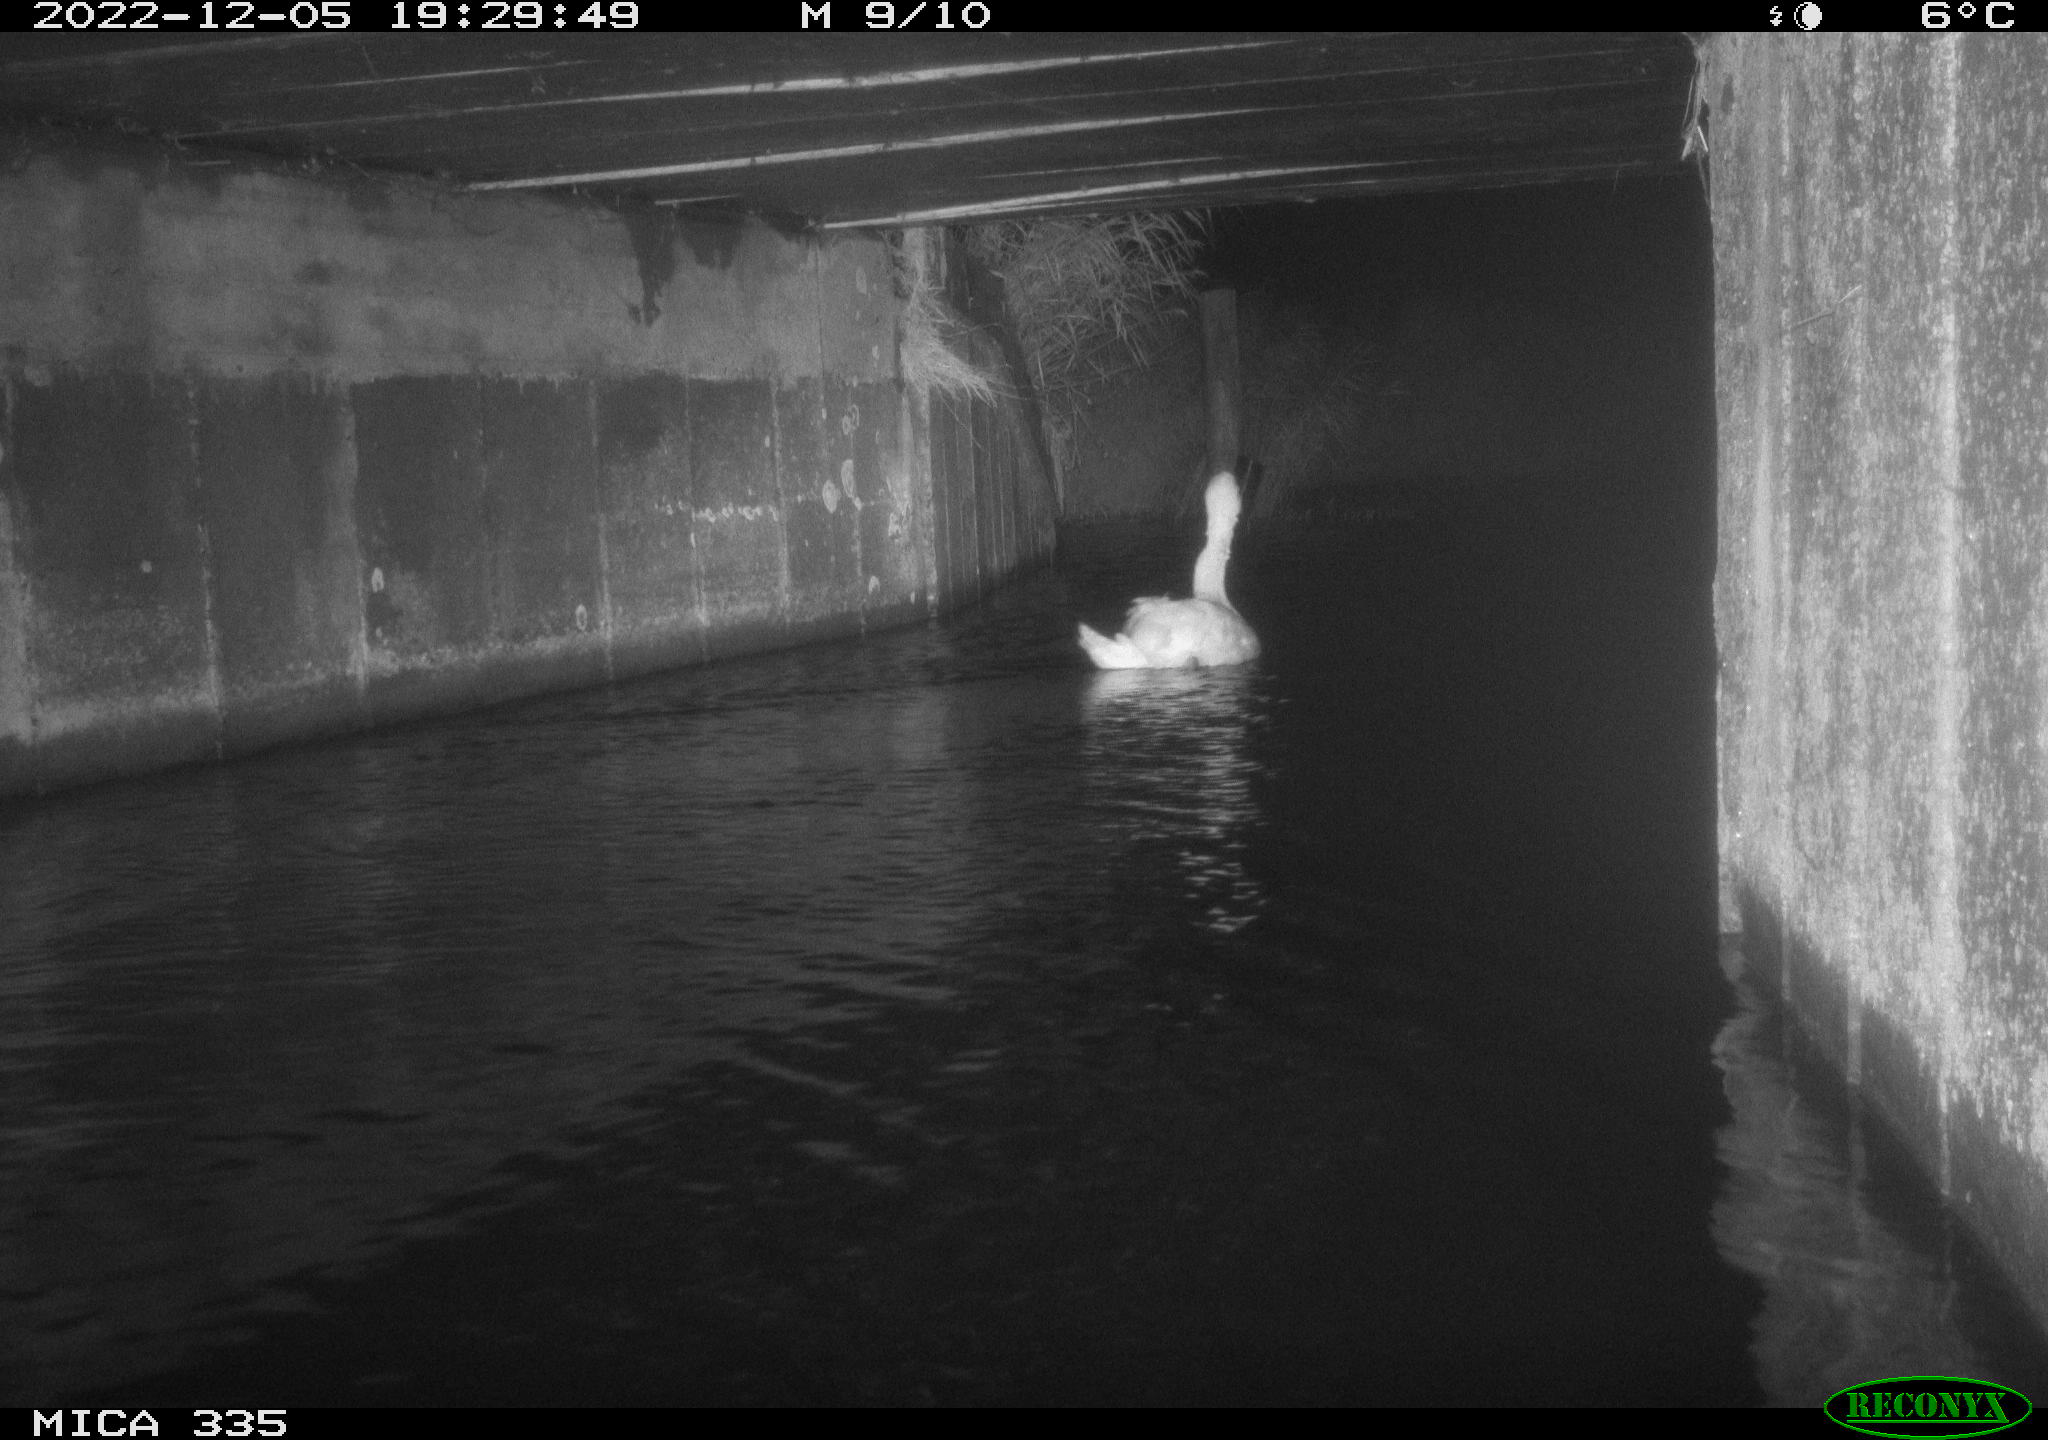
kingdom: Animalia
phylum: Chordata
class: Aves
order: Anseriformes
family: Anatidae
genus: Cygnus
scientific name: Cygnus olor
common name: Mute swan
